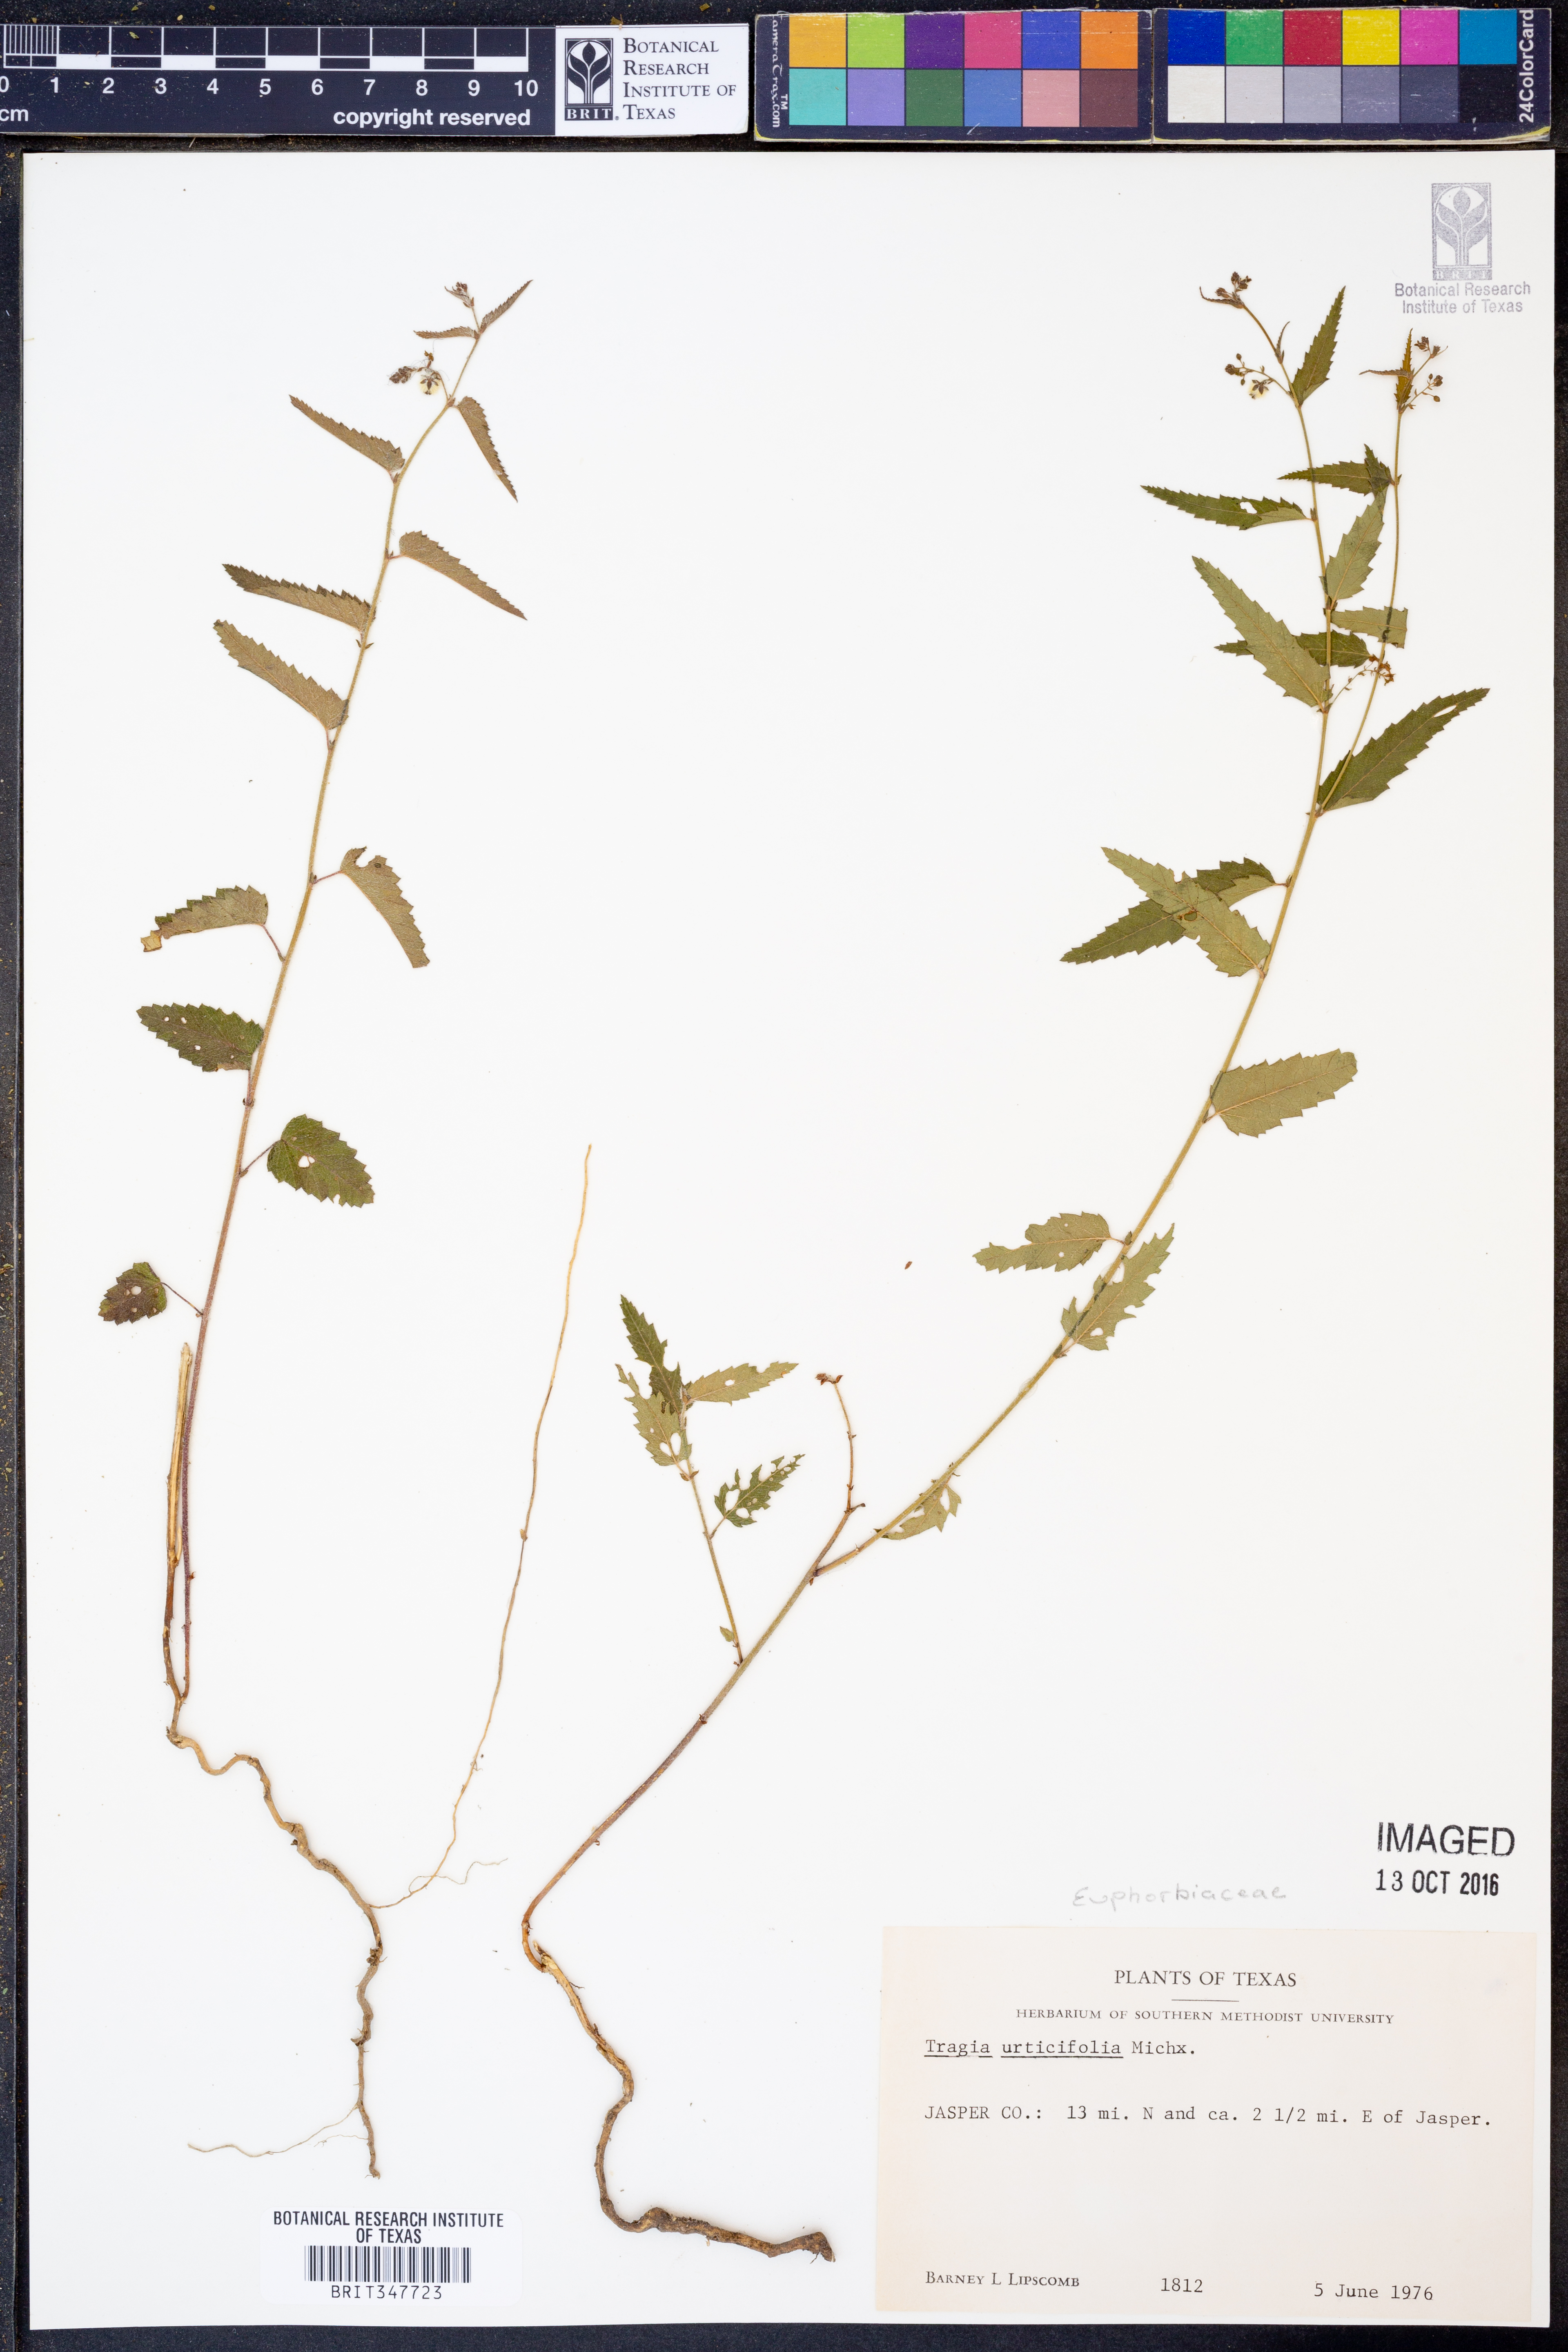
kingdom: Plantae
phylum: Tracheophyta
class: Magnoliopsida
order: Malpighiales
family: Euphorbiaceae
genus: Tragia
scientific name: Tragia urticifolia
